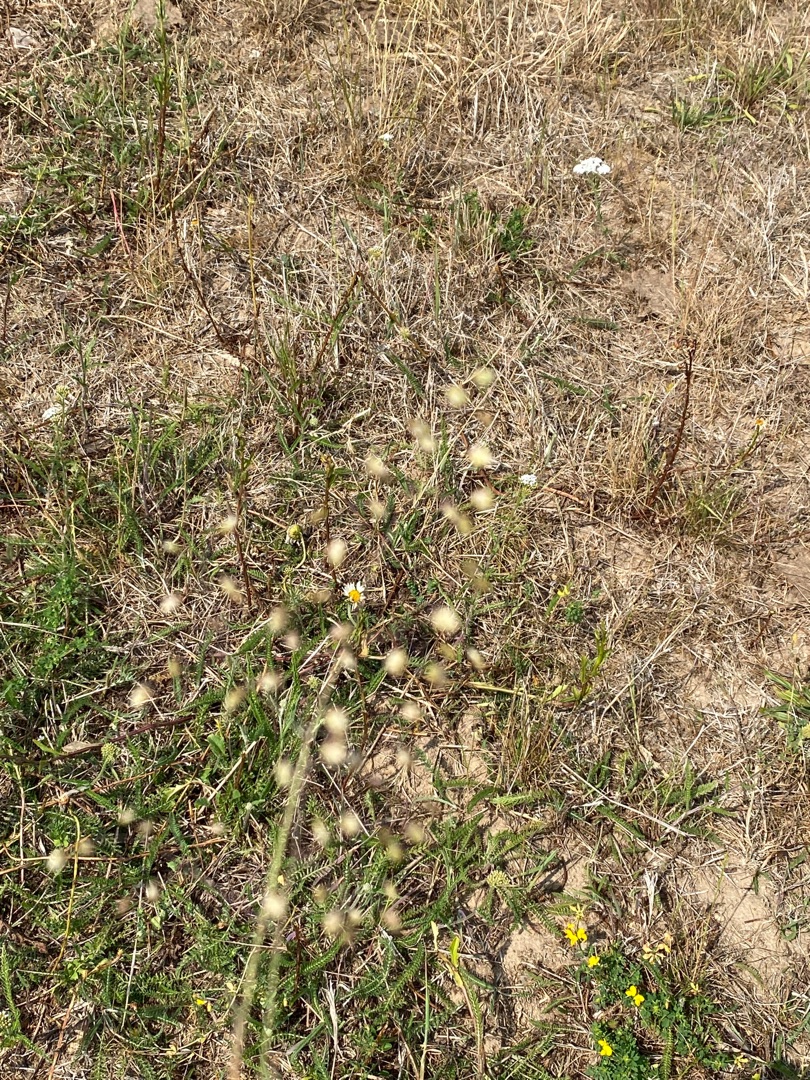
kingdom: Plantae
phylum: Tracheophyta
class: Liliopsida
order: Poales
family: Poaceae
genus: Briza
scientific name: Briza media
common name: Hjertegræs
